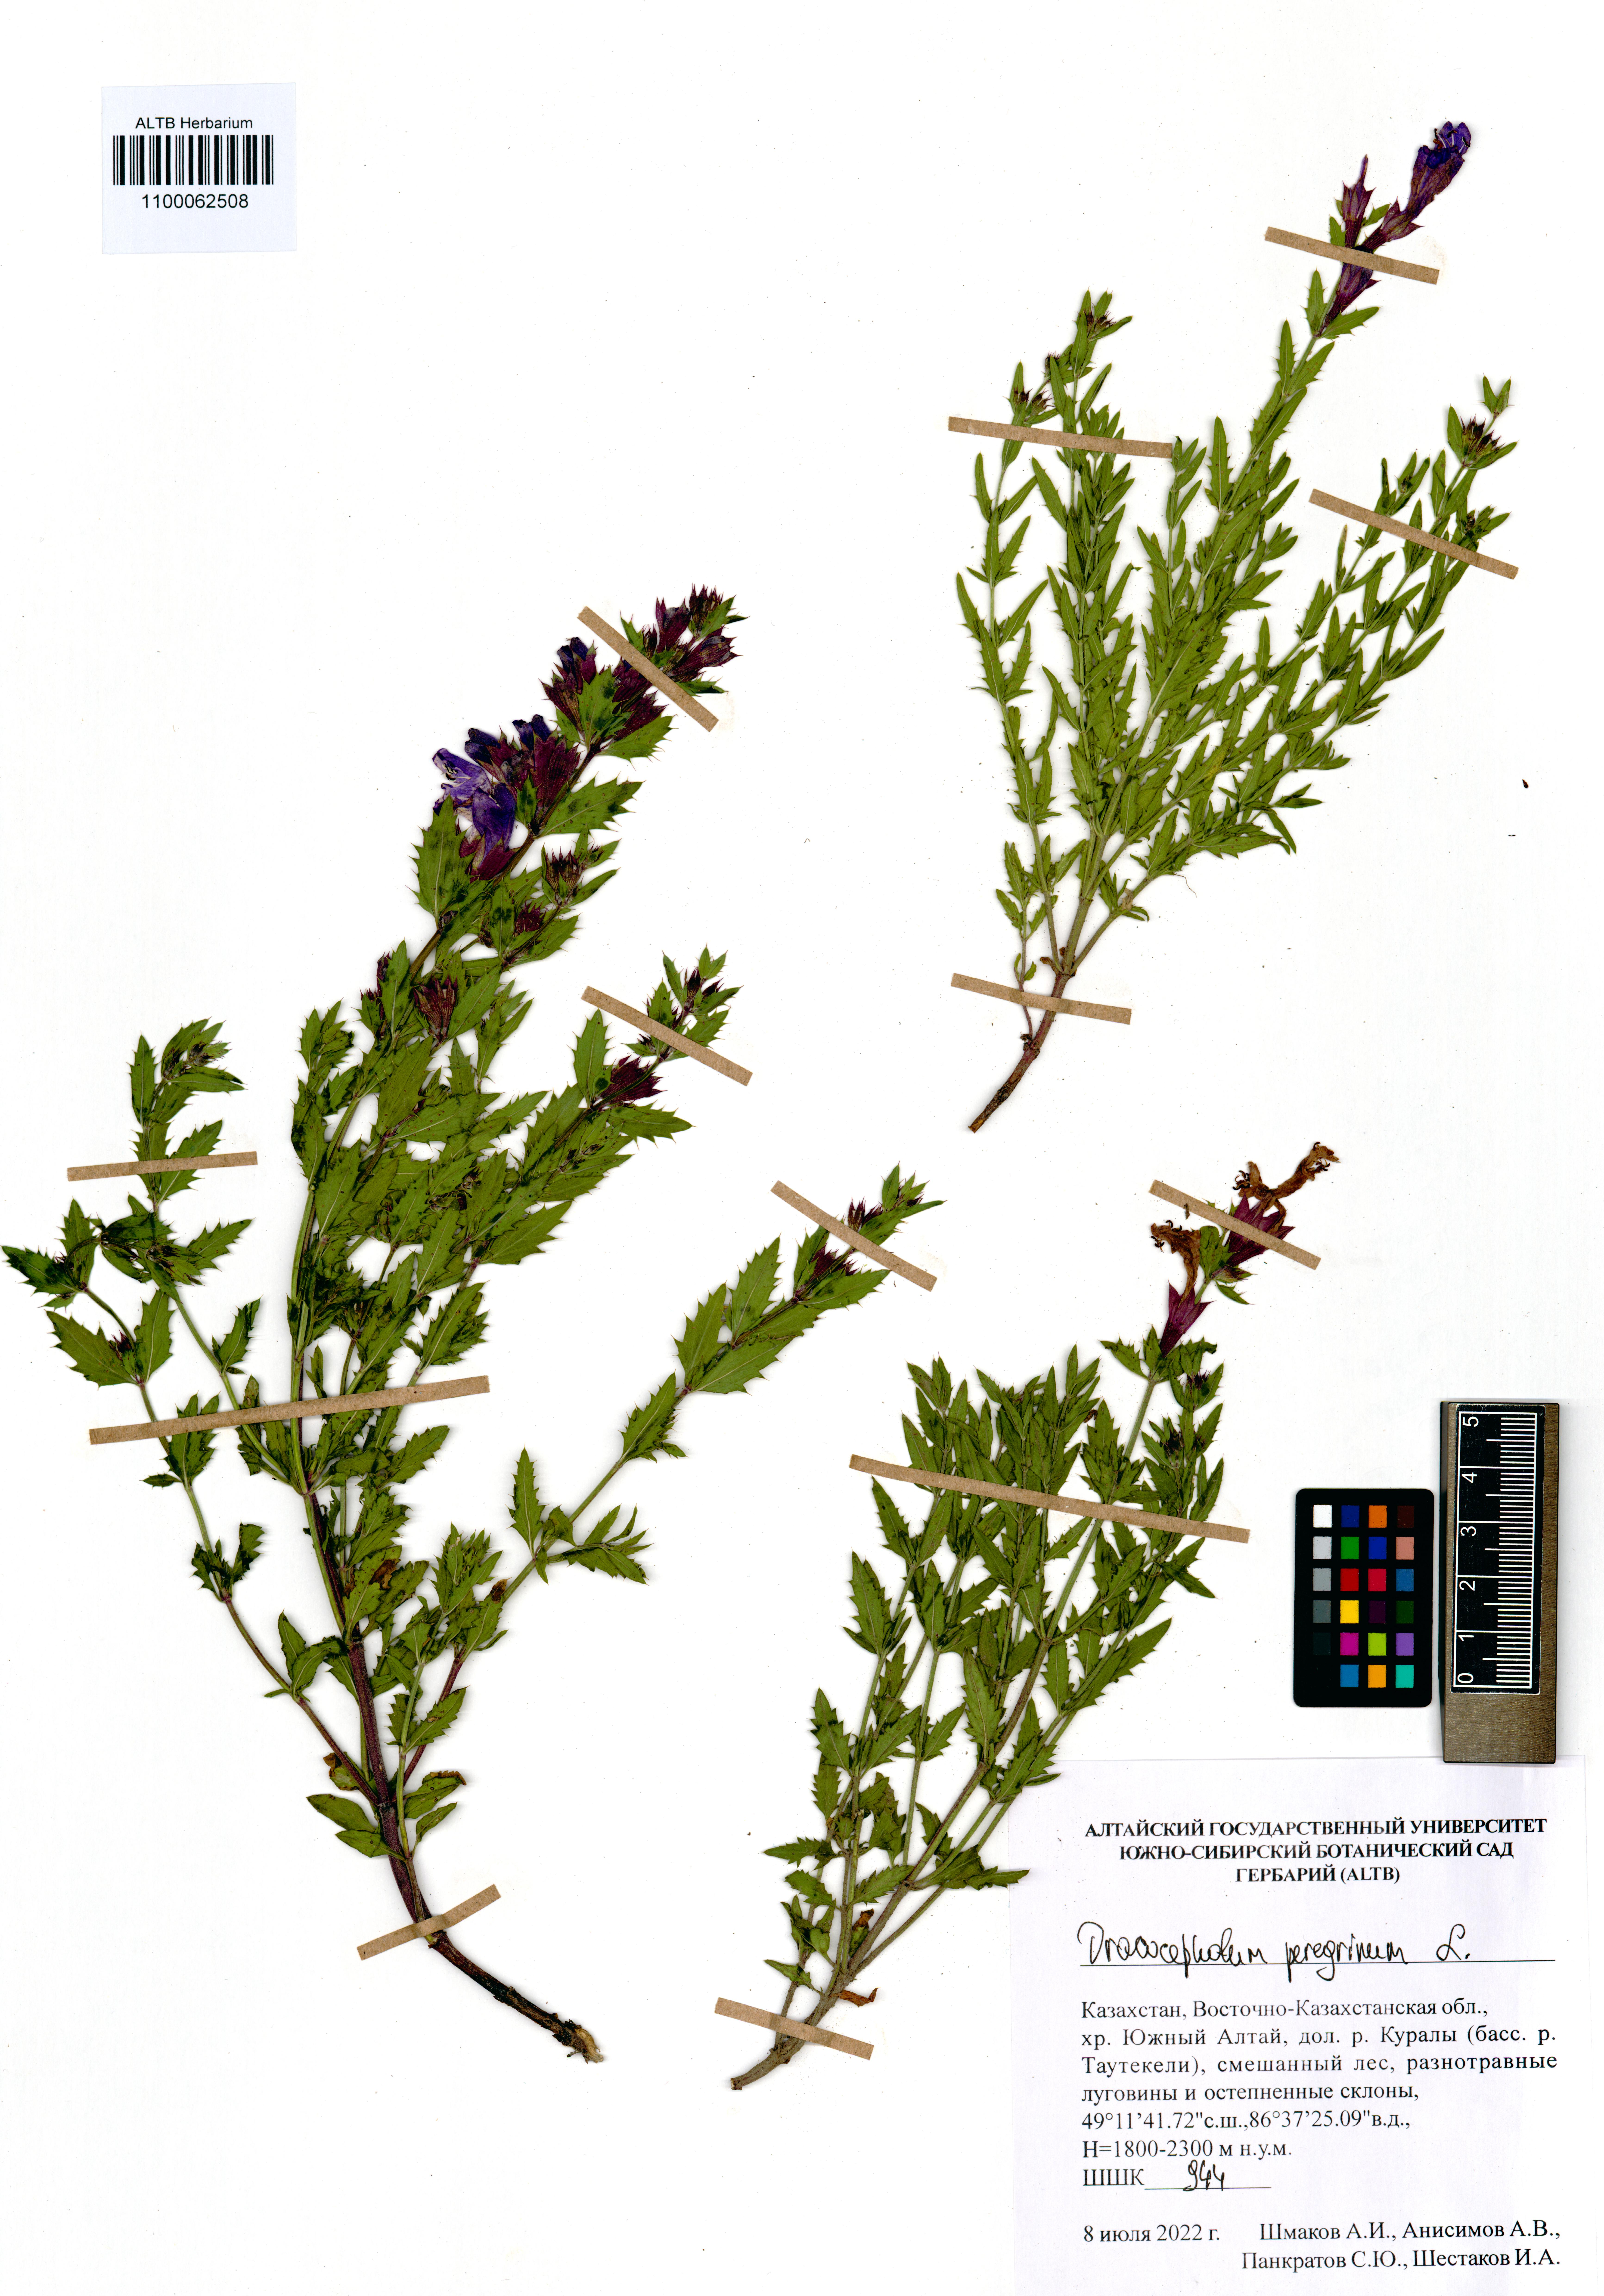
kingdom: Plantae
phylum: Tracheophyta
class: Magnoliopsida
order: Lamiales
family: Lamiaceae
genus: Dracocephalum
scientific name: Dracocephalum peregrinum
